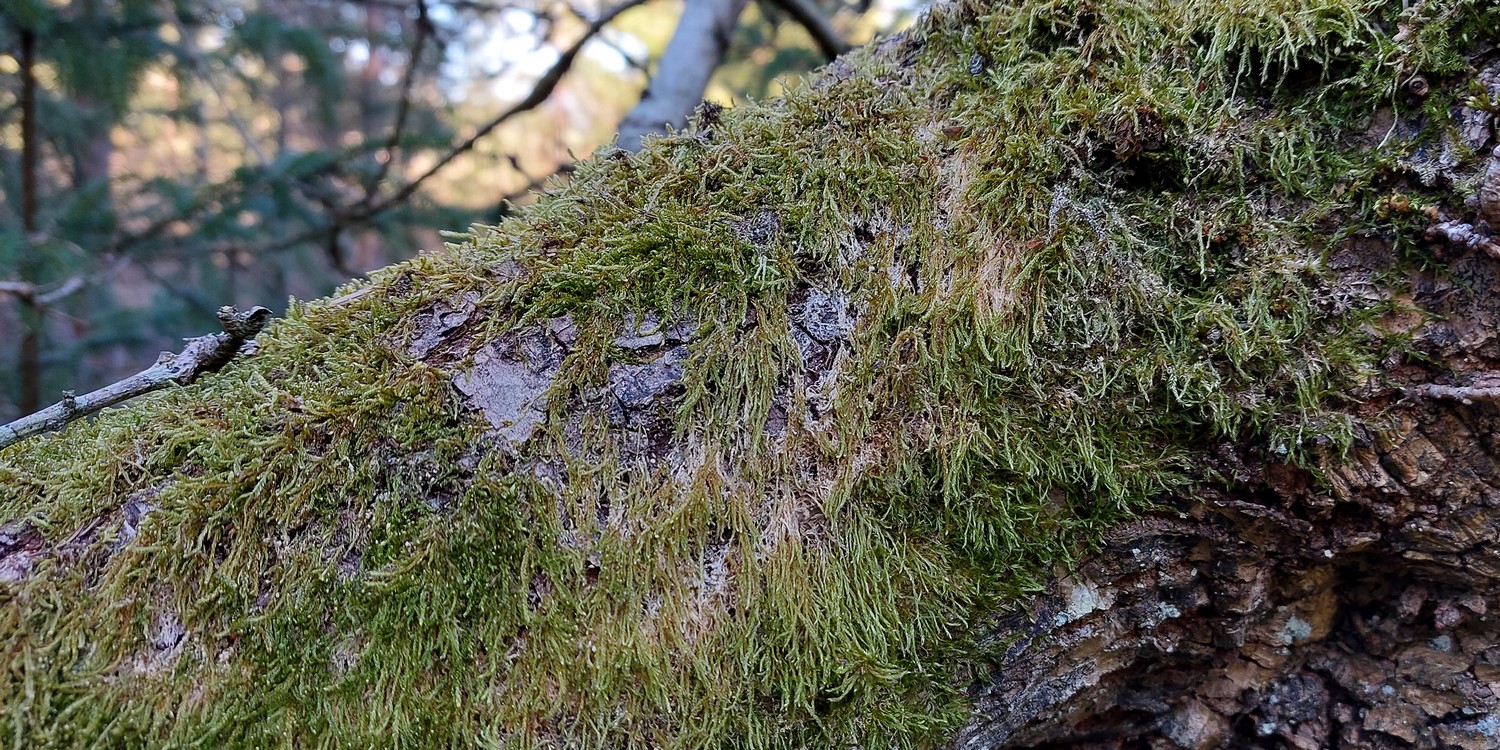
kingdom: Fungi
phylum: Basidiomycota
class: Agaricomycetes
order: Agaricales
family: Chromocyphellaceae
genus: Chromocyphella
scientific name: Chromocyphella muscicola
